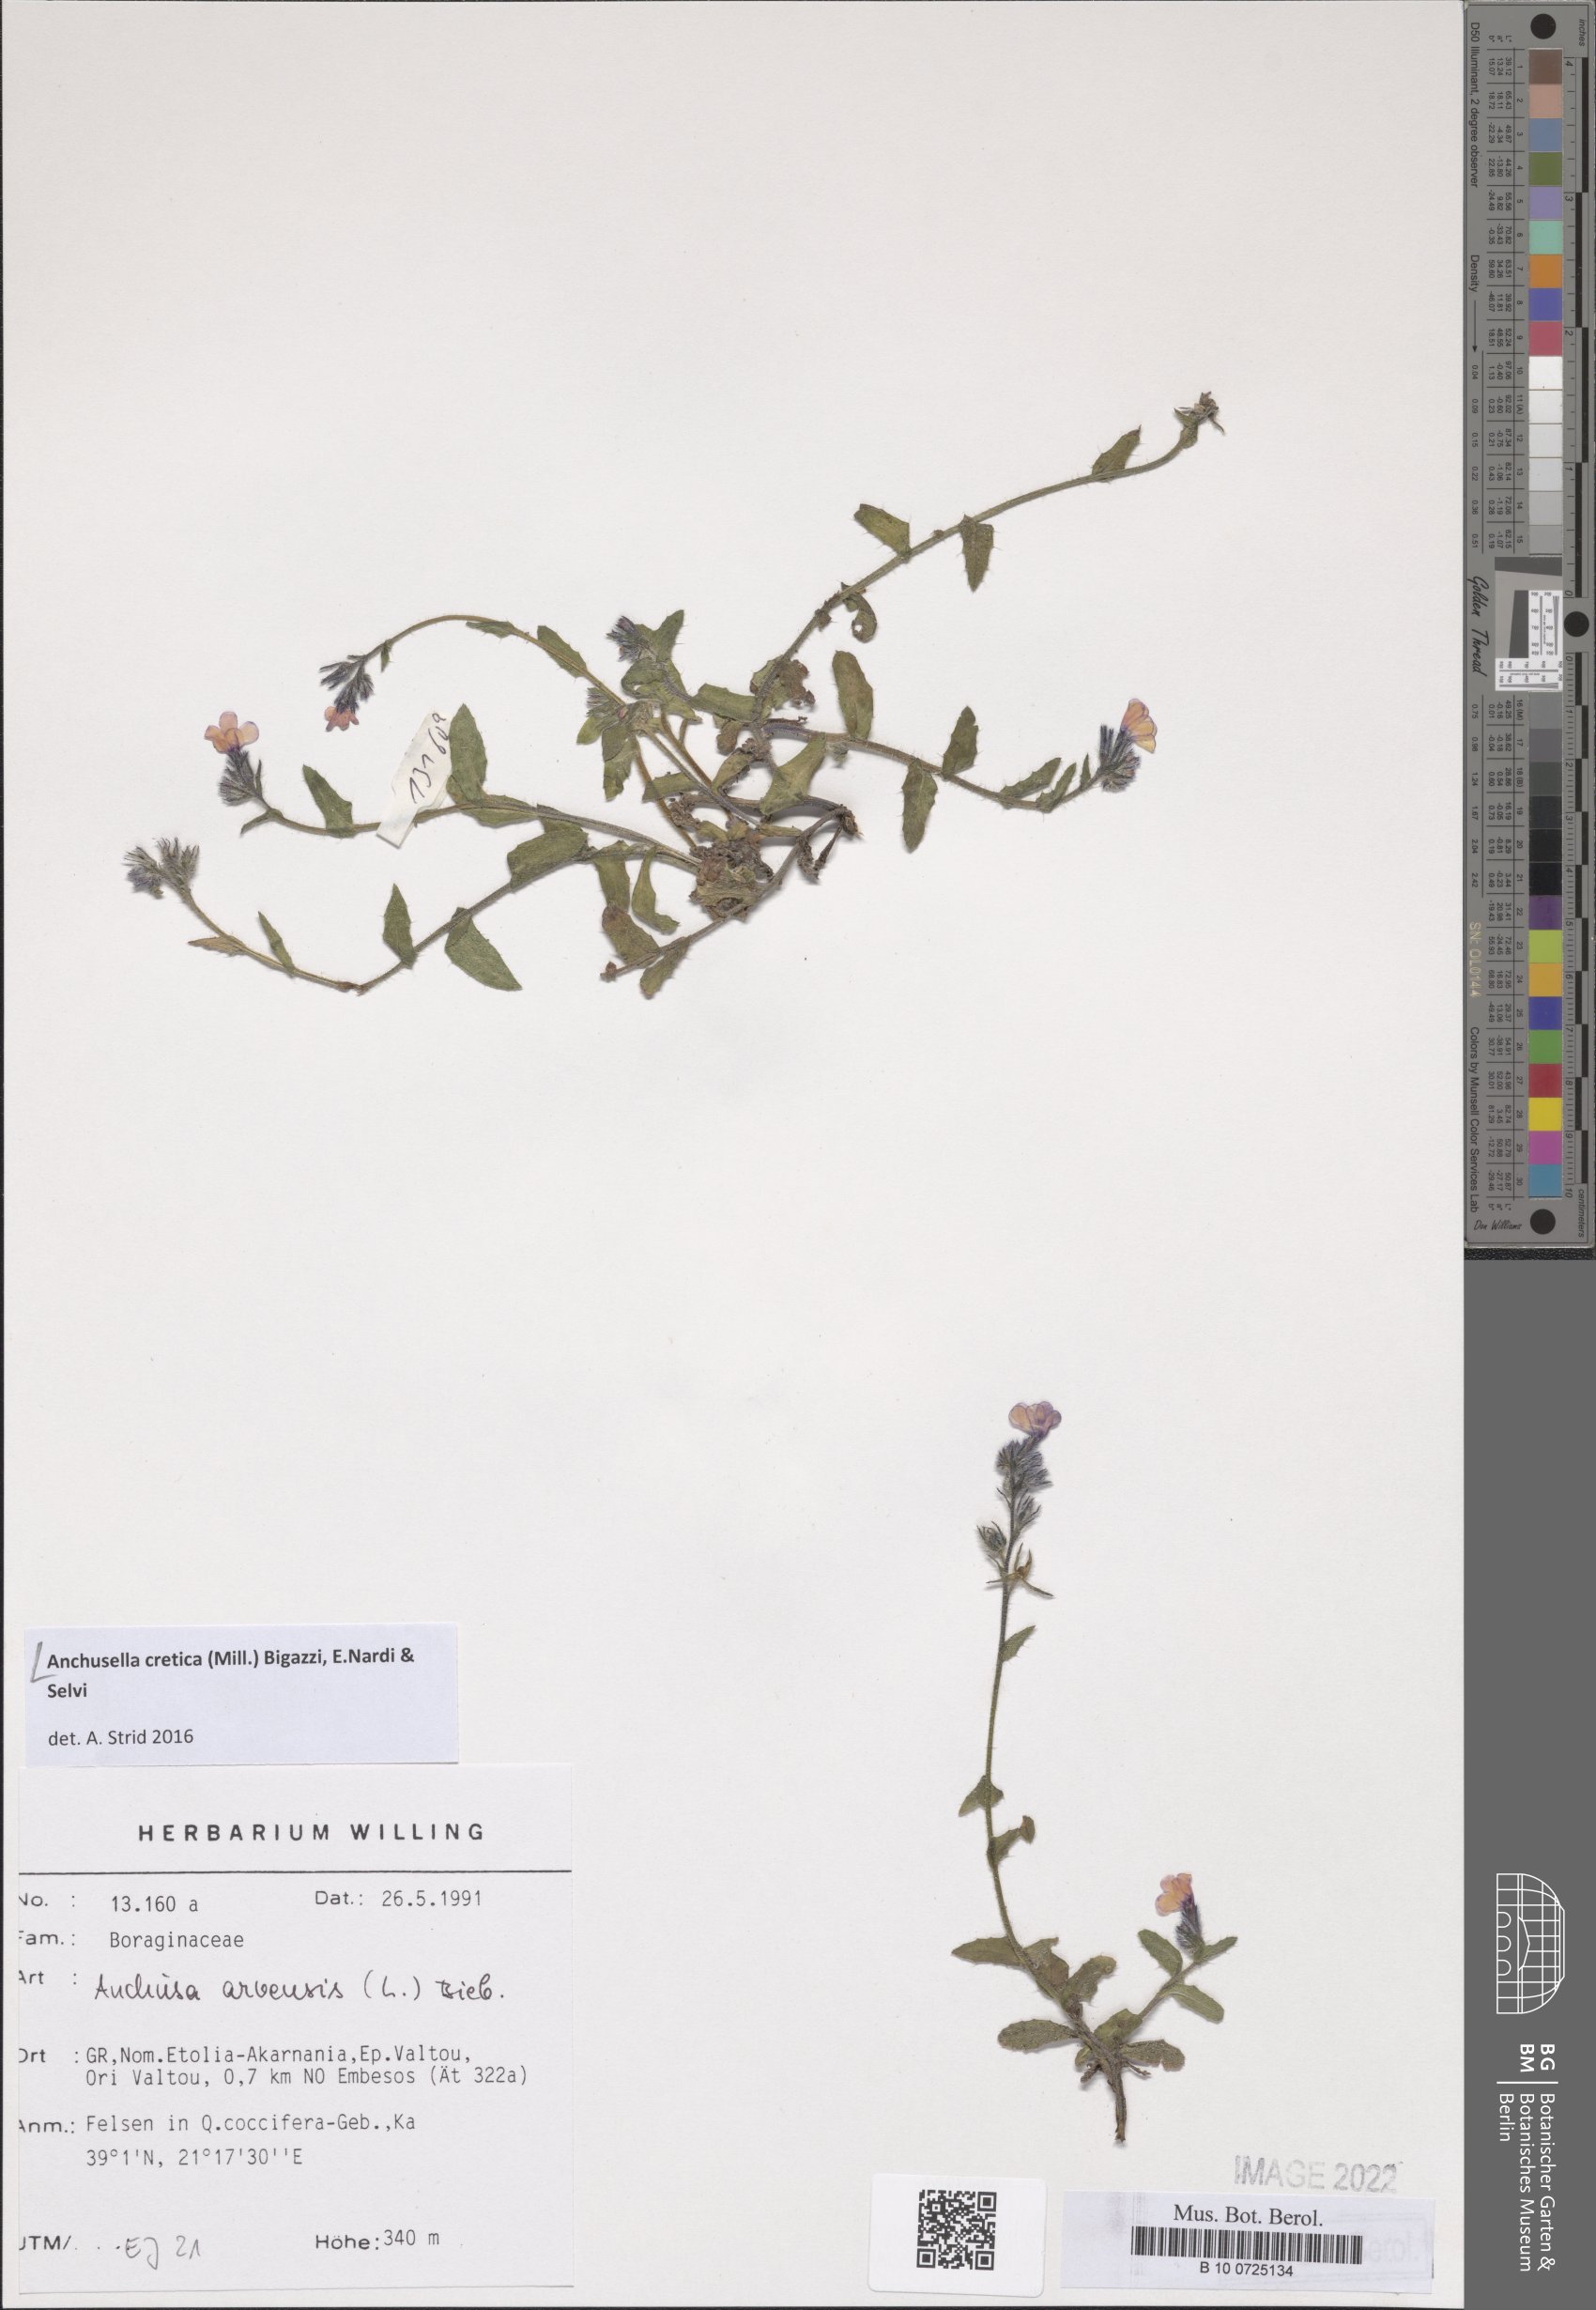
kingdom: Plantae
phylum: Tracheophyta
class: Magnoliopsida
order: Boraginales
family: Boraginaceae
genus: Anchusella
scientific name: Anchusella cretica
